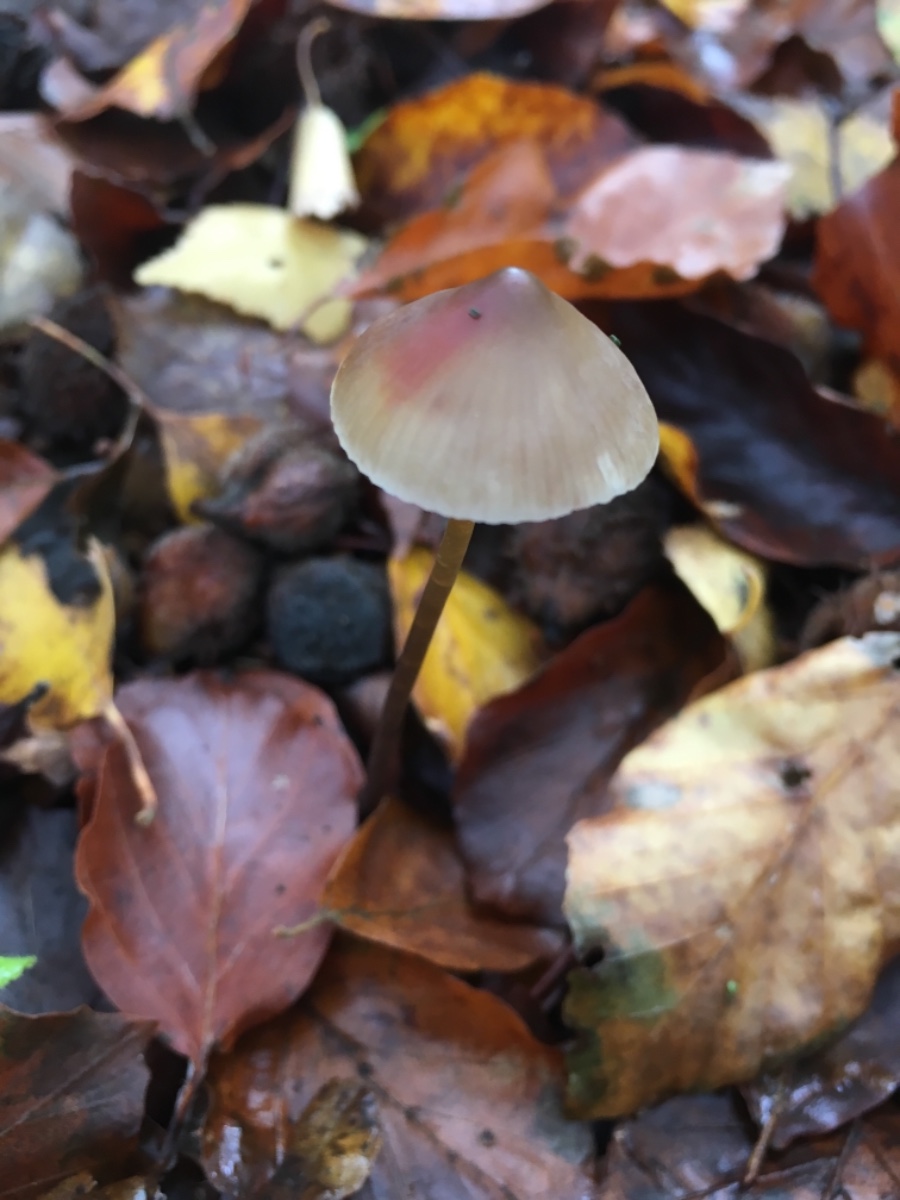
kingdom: Fungi
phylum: Basidiomycota
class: Agaricomycetes
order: Agaricales
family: Mycenaceae
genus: Mycena
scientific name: Mycena crocata
